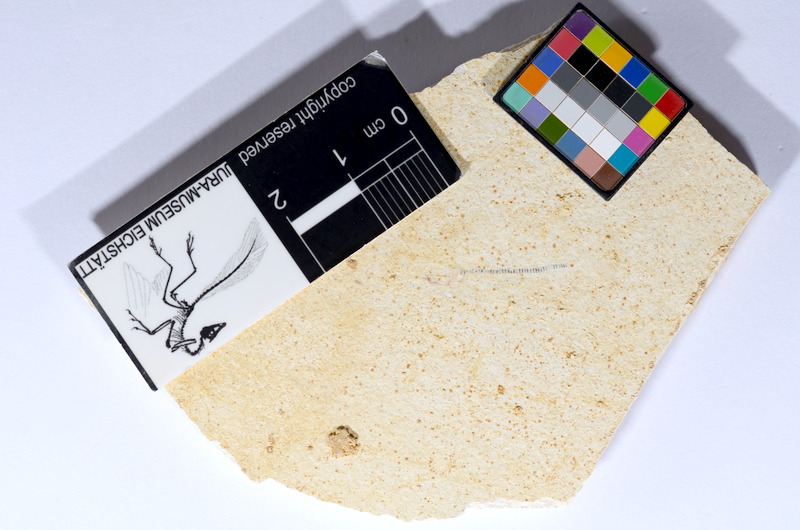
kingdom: Animalia
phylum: Chordata
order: Salmoniformes
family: Orthogonikleithridae
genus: Orthogonikleithrus
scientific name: Orthogonikleithrus hoelli
